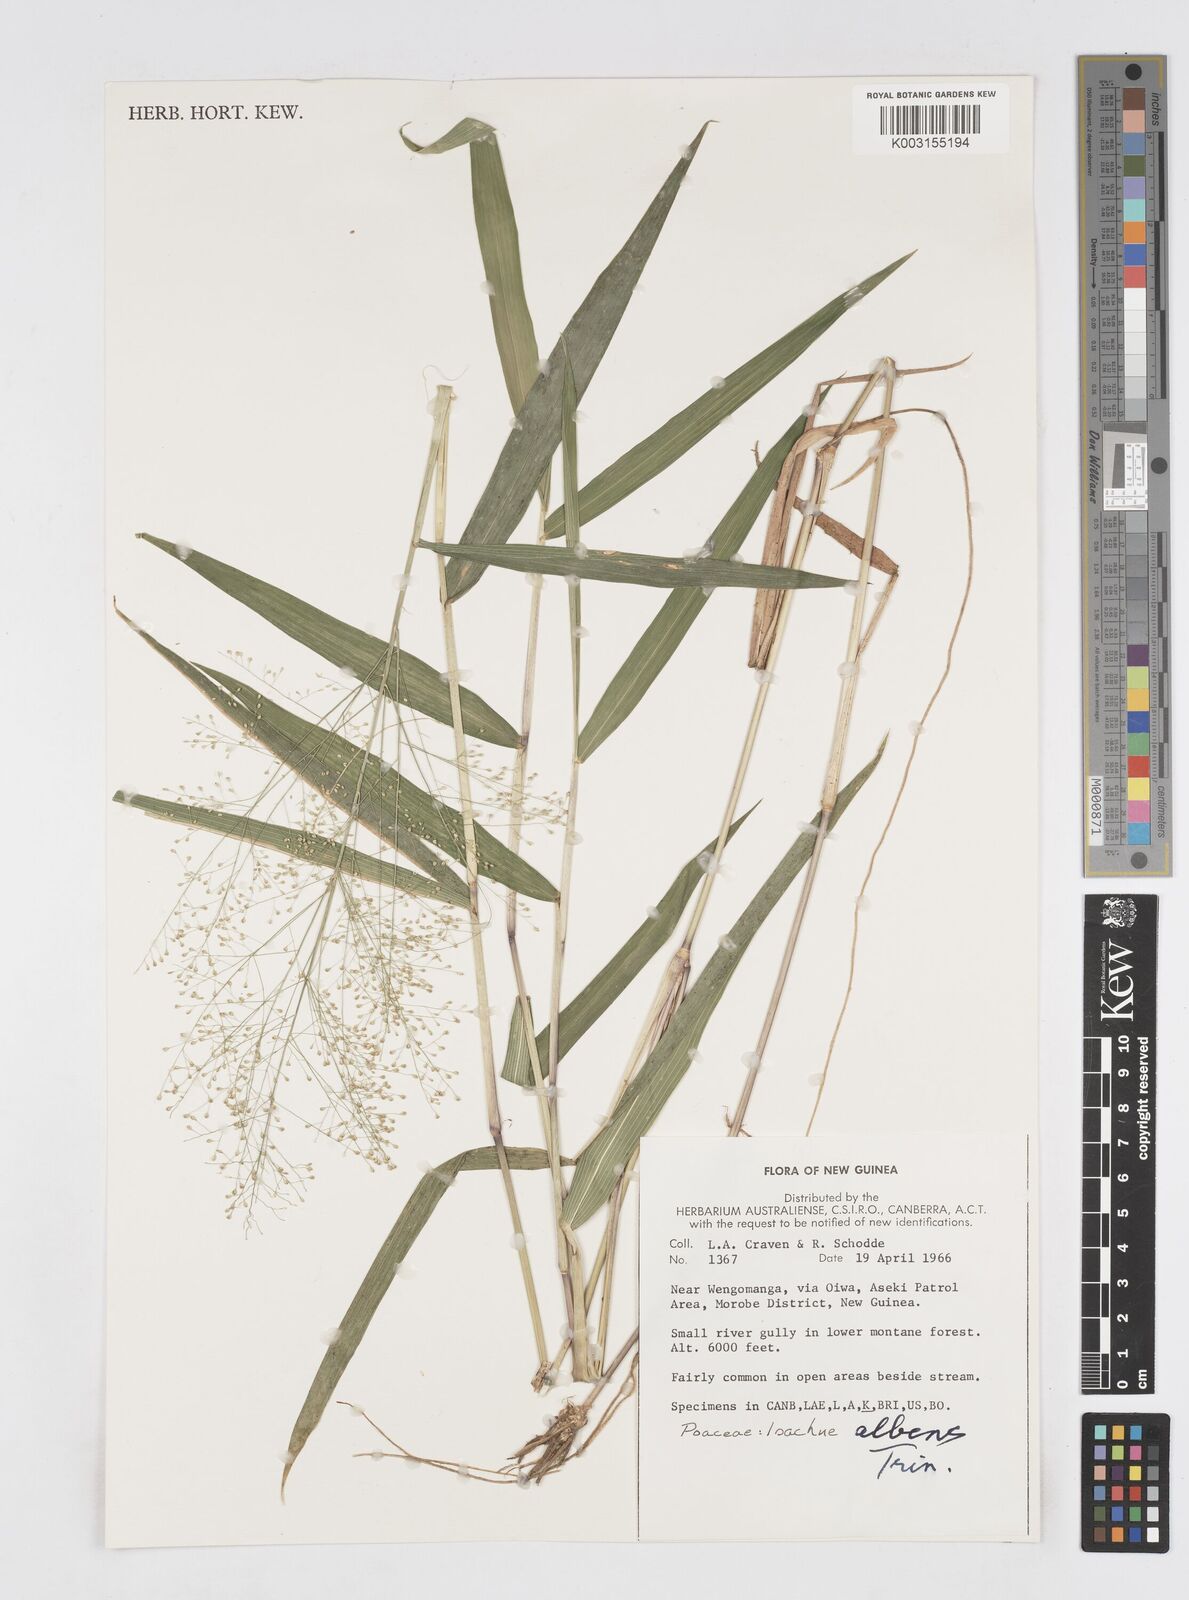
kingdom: Plantae
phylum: Tracheophyta
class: Liliopsida
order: Poales
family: Poaceae
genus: Isachne
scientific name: Isachne albens
